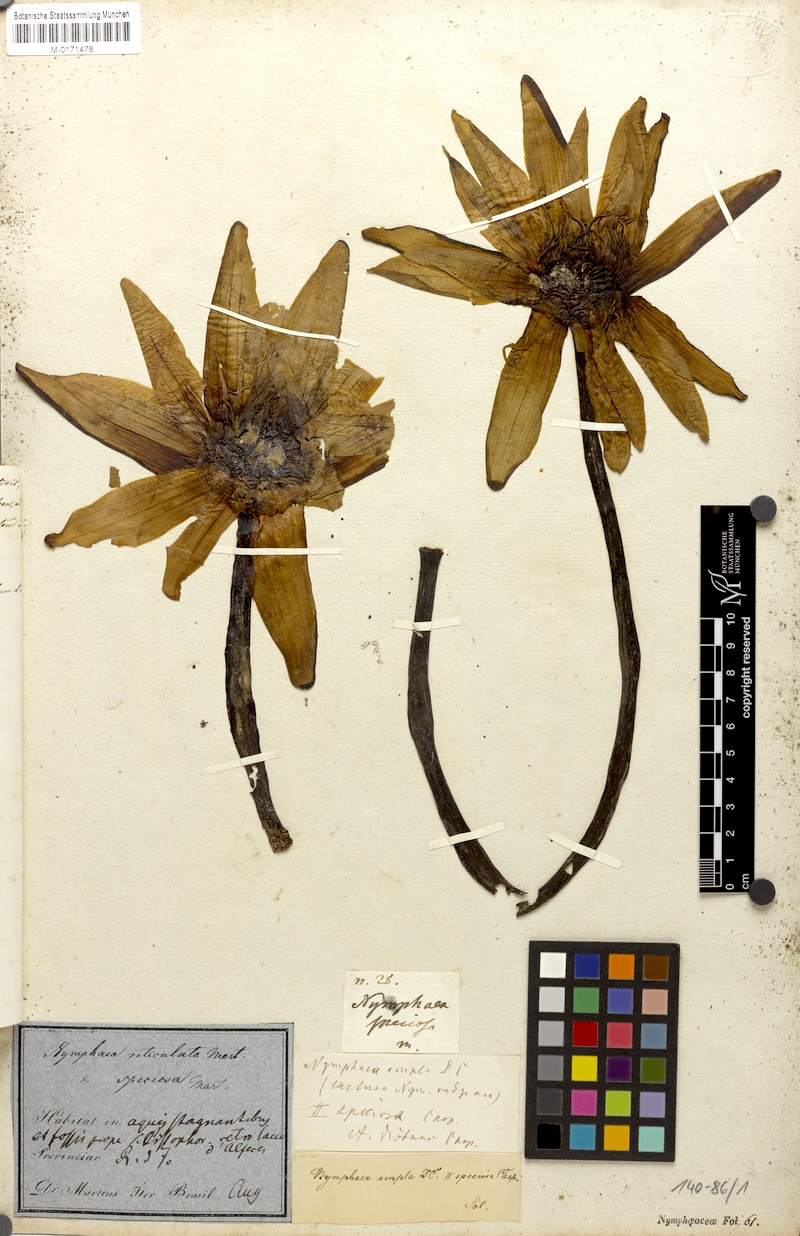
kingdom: Plantae
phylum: Tracheophyta
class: Magnoliopsida
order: Nymphaeales
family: Nymphaeaceae
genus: Nymphaea
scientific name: Nymphaea pulchella
